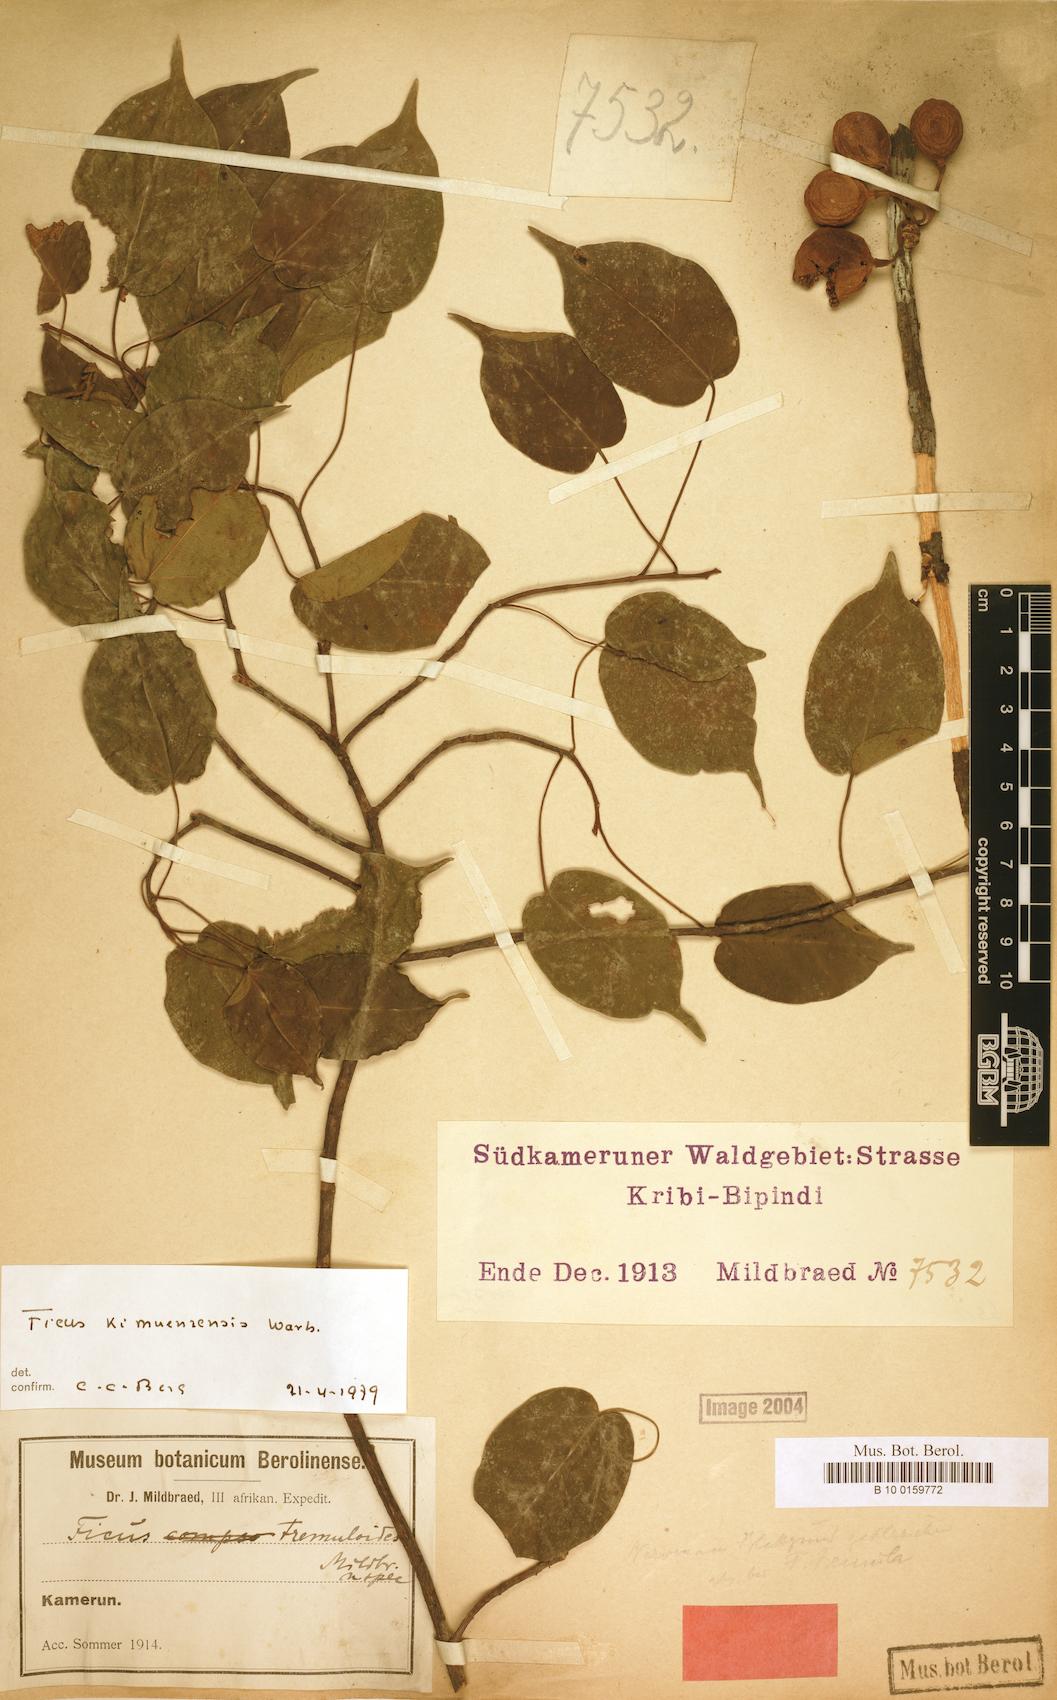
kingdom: Plantae
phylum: Tracheophyta
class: Magnoliopsida
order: Rosales
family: Moraceae
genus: Ficus
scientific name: Ficus tremula
